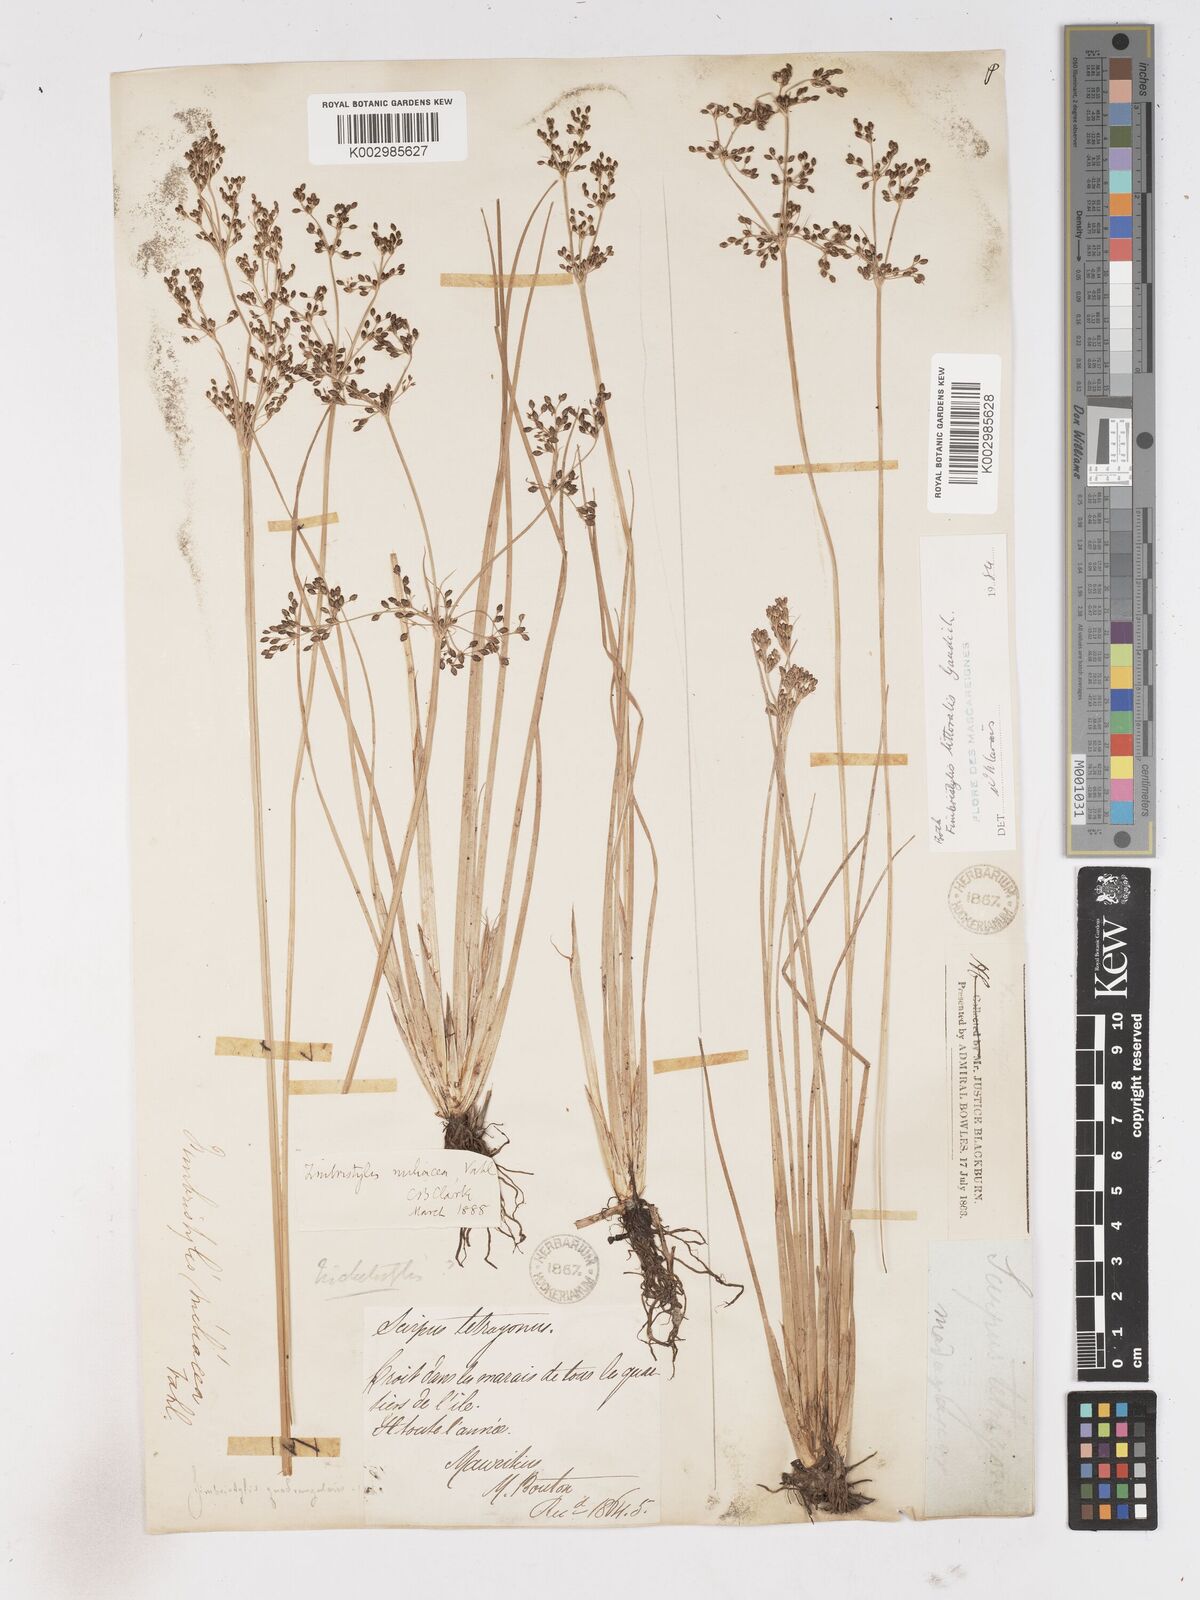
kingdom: Plantae
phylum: Tracheophyta
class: Liliopsida
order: Poales
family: Cyperaceae
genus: Fimbristylis
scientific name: Fimbristylis littoralis
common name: Fimbry
